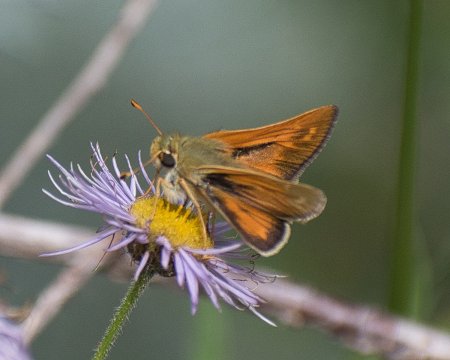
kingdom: Animalia
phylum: Arthropoda
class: Insecta
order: Lepidoptera
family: Hesperiidae
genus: Hesperia
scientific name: Hesperia comma
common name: Western Branded Skipper
